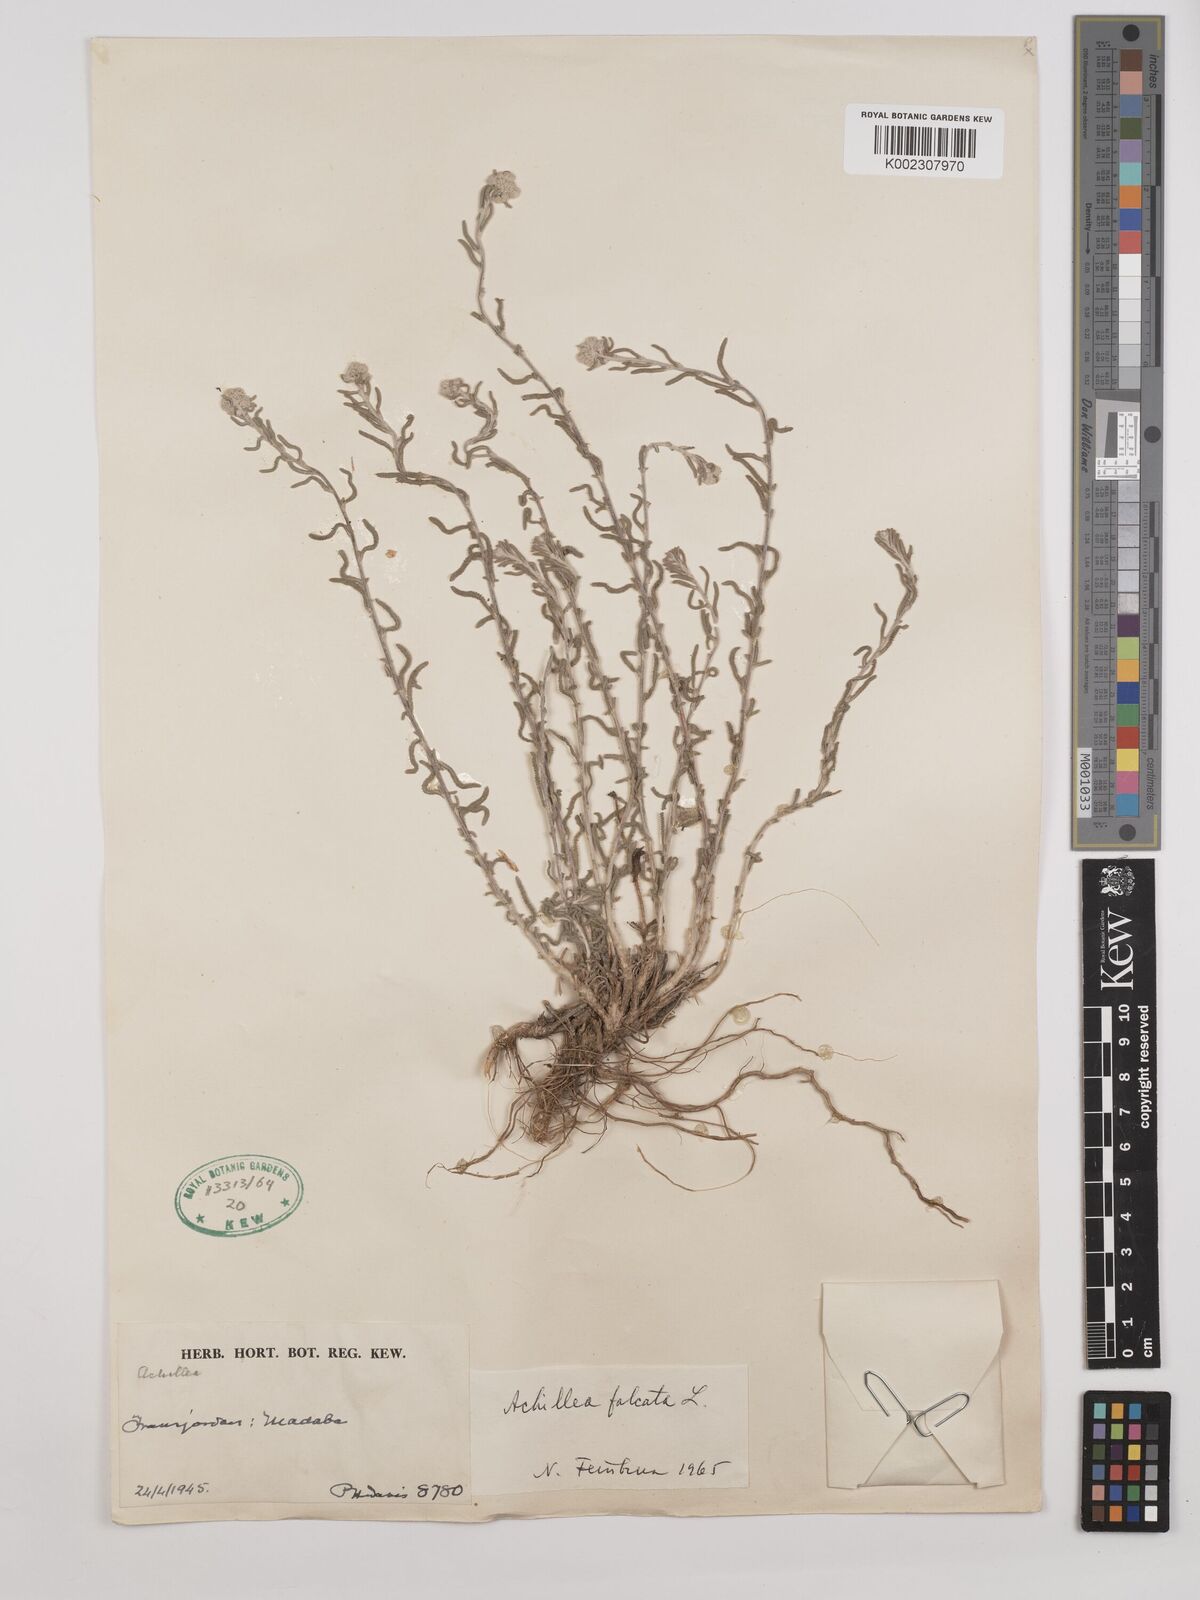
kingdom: Plantae
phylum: Tracheophyta
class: Magnoliopsida
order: Asterales
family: Asteraceae
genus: Achillea
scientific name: Achillea falcata
